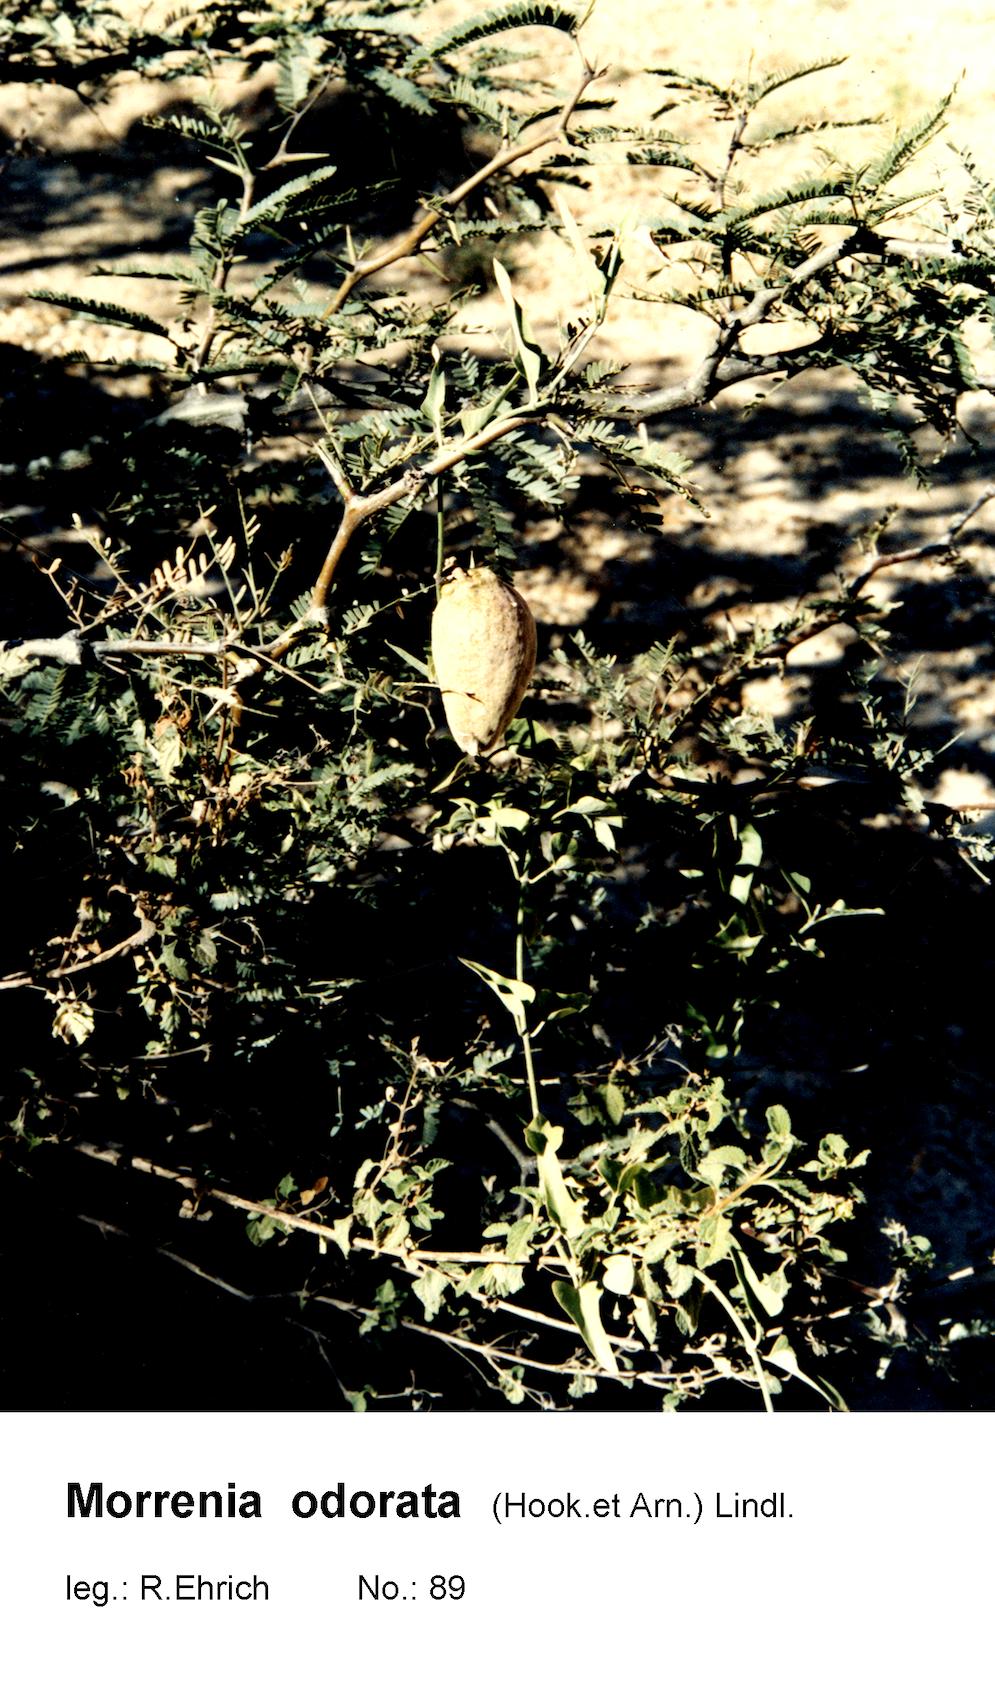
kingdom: Plantae
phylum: Tracheophyta
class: Magnoliopsida
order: Gentianales
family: Apocynaceae
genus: Araujia
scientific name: Araujia odorata
